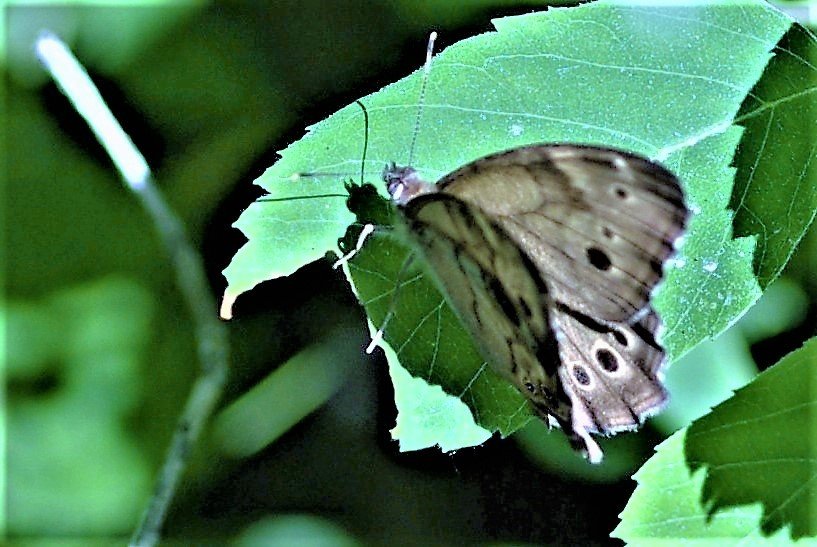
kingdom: Animalia
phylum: Arthropoda
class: Insecta
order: Lepidoptera
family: Nymphalidae
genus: Lethe
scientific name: Lethe anthedon
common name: Northern Pearly-Eye
